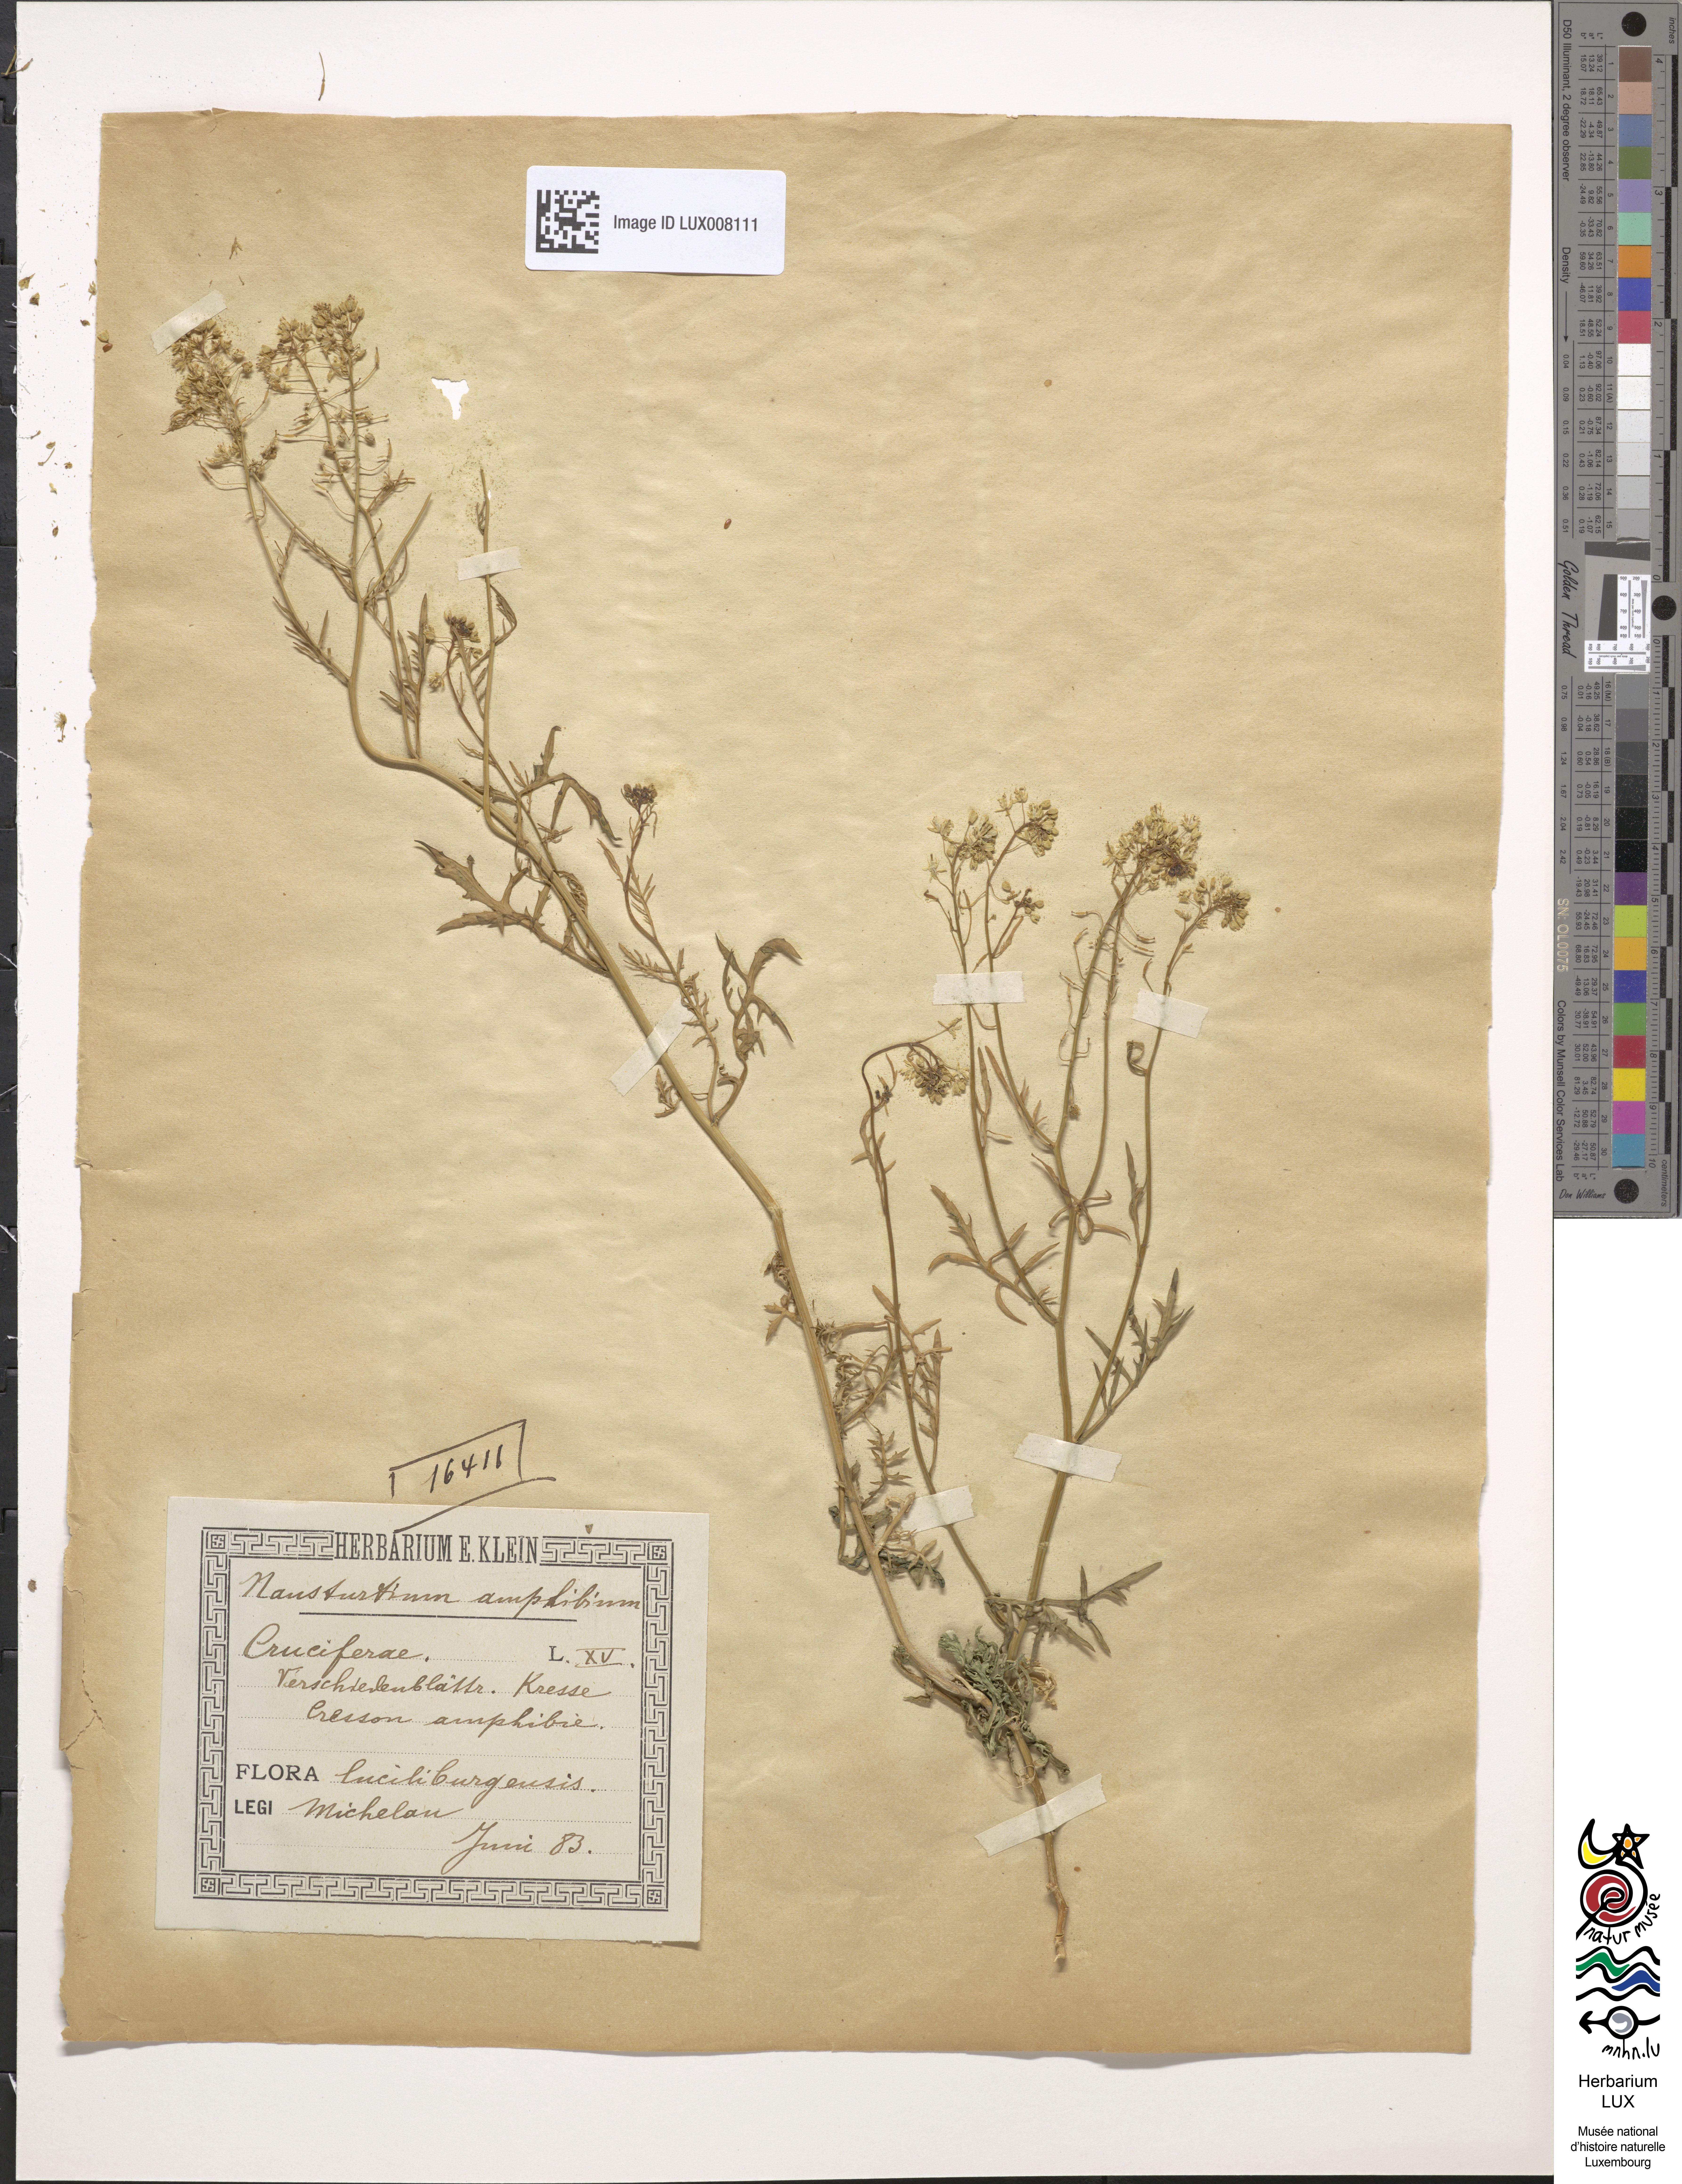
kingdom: Plantae
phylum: Tracheophyta
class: Magnoliopsida
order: Brassicales
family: Brassicaceae
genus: Rorippa
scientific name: Rorippa amphibia
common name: Great yellow-cress
